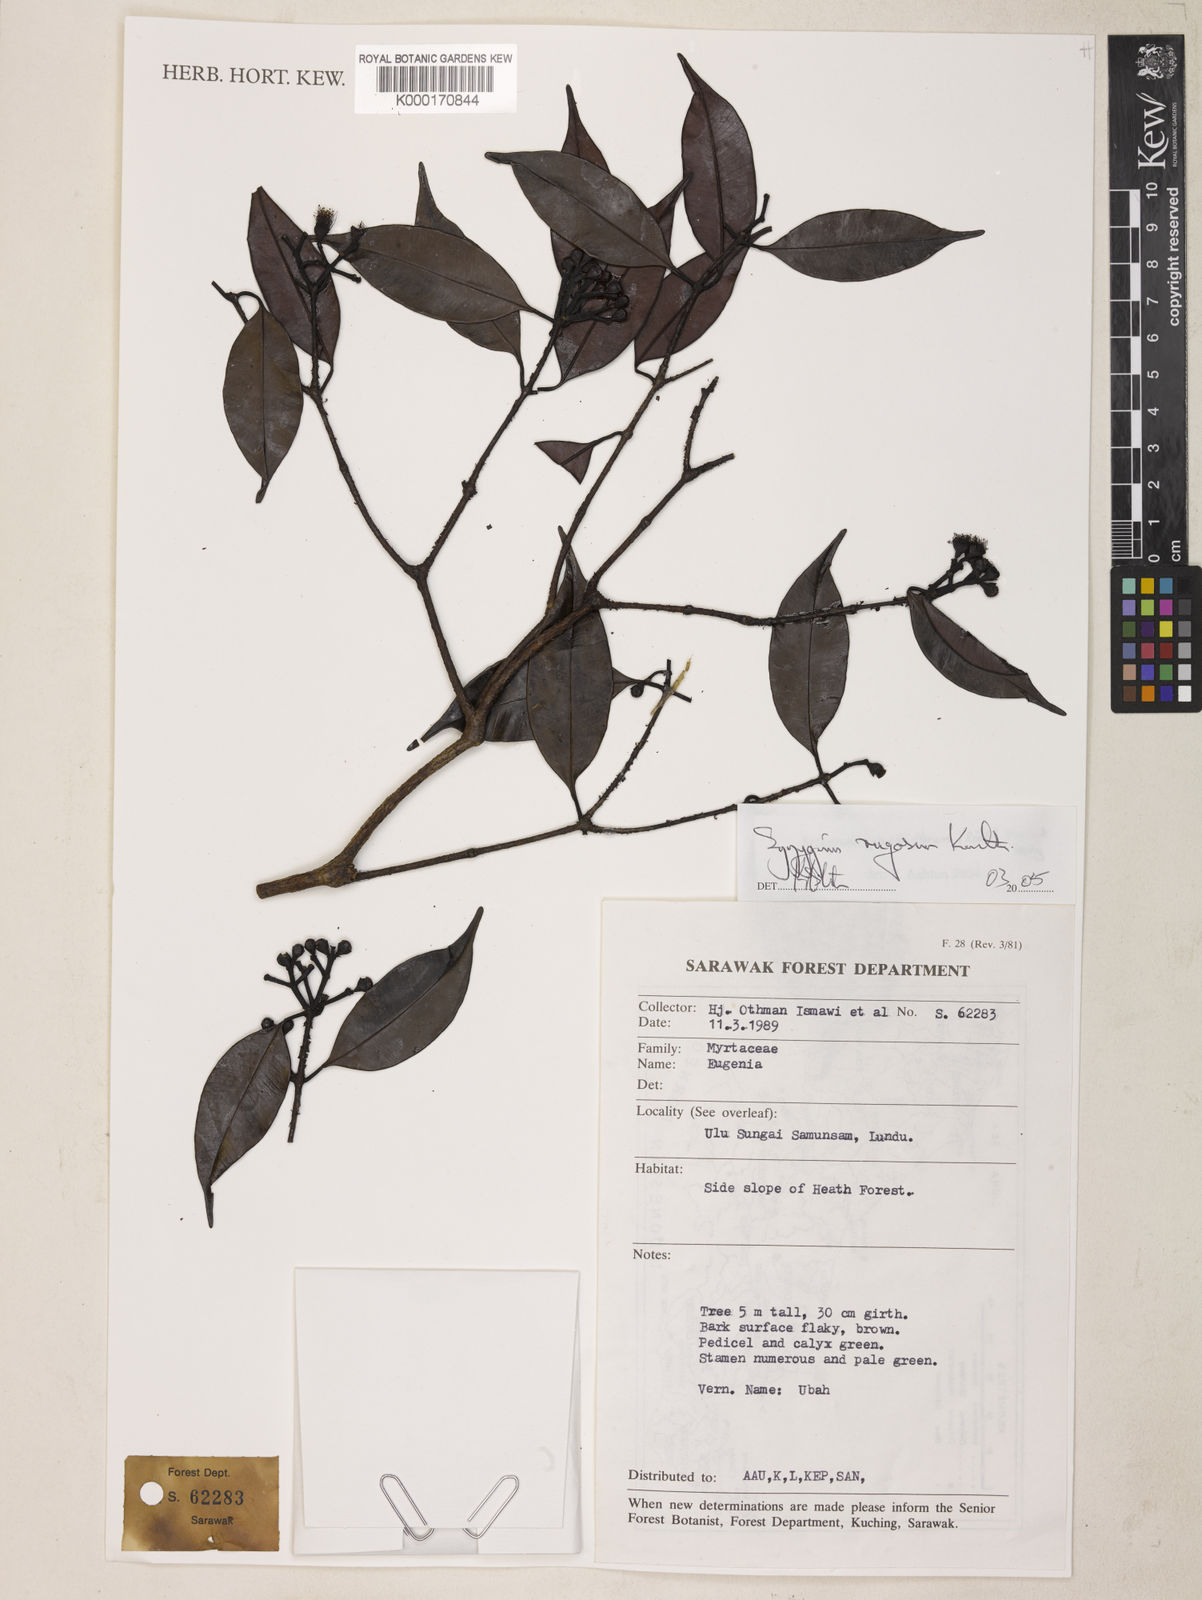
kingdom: Plantae
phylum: Tracheophyta
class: Magnoliopsida
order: Myrtales
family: Myrtaceae
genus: Syzygium
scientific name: Syzygium prasiniflorum
